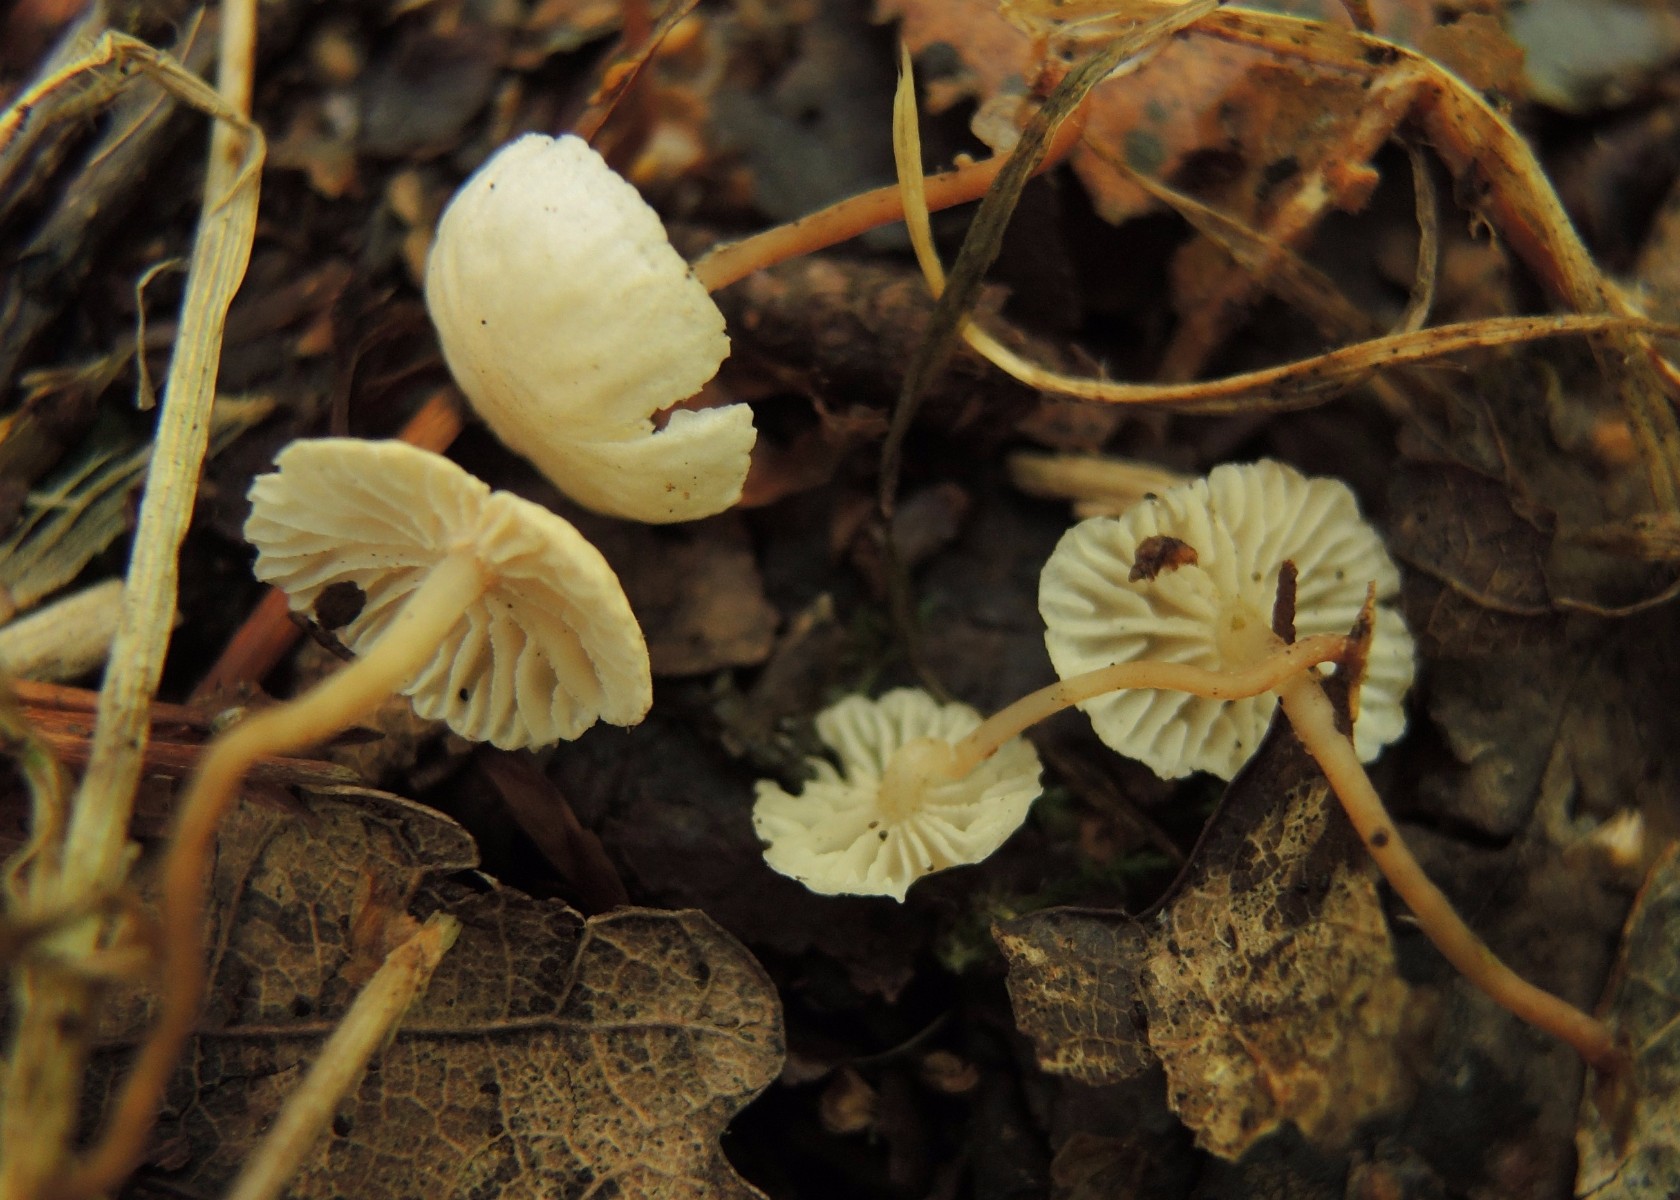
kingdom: Fungi
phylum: Basidiomycota
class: Agaricomycetes
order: Agaricales
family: Omphalotaceae
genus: Collybiopsis
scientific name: Collybiopsis vaillantii
